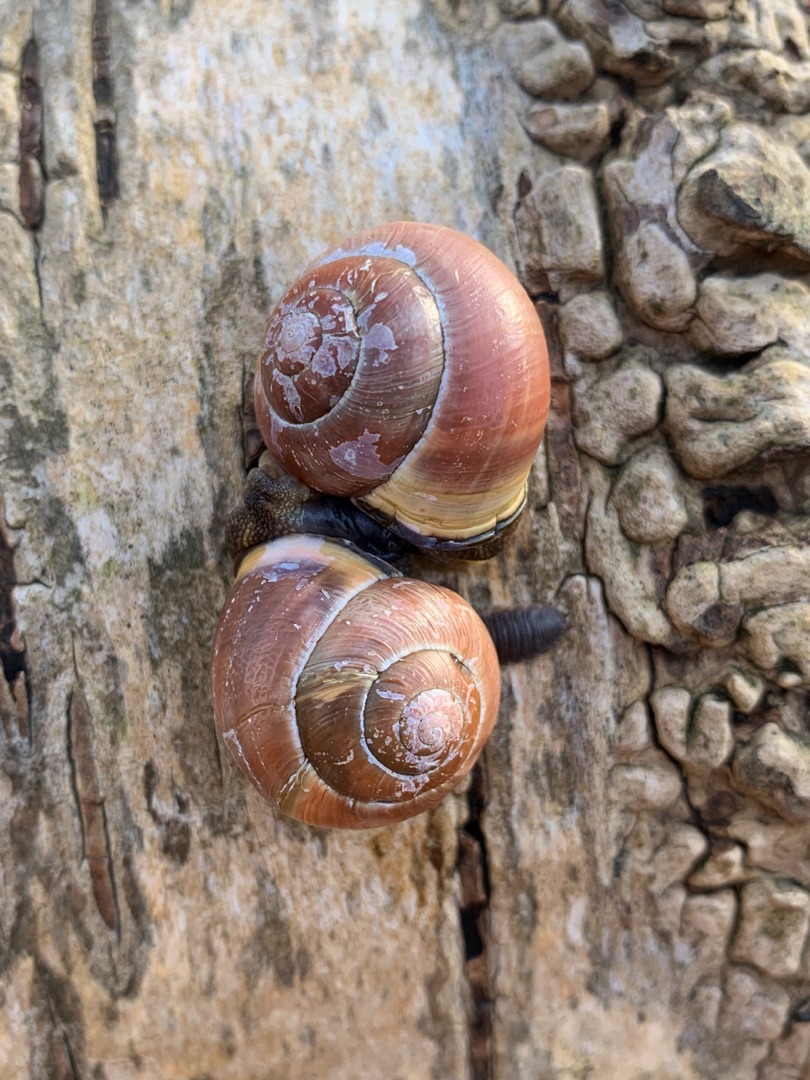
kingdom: Animalia
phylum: Mollusca
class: Gastropoda
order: Stylommatophora
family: Helicidae
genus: Cepaea
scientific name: Cepaea nemoralis
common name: Lundsnegl
